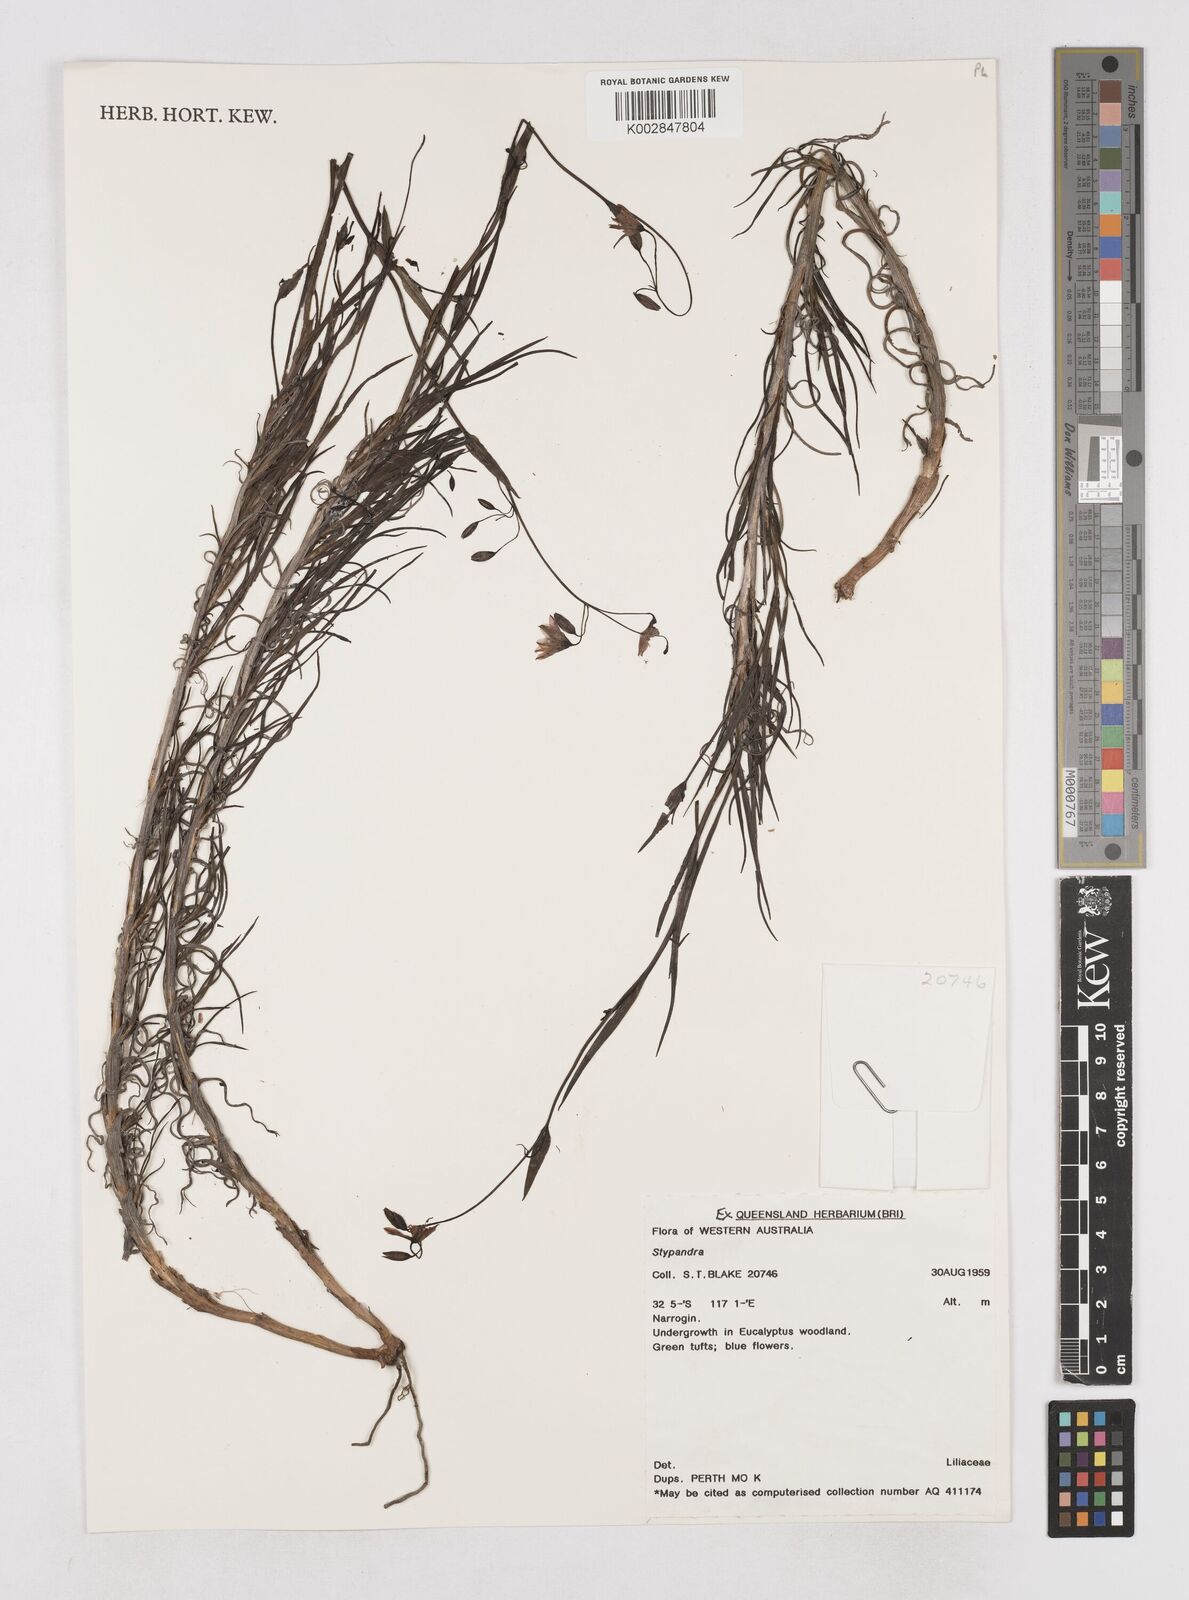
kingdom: Plantae
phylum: Tracheophyta
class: Liliopsida
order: Asparagales
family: Asphodelaceae
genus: Stypandra
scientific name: Stypandra
